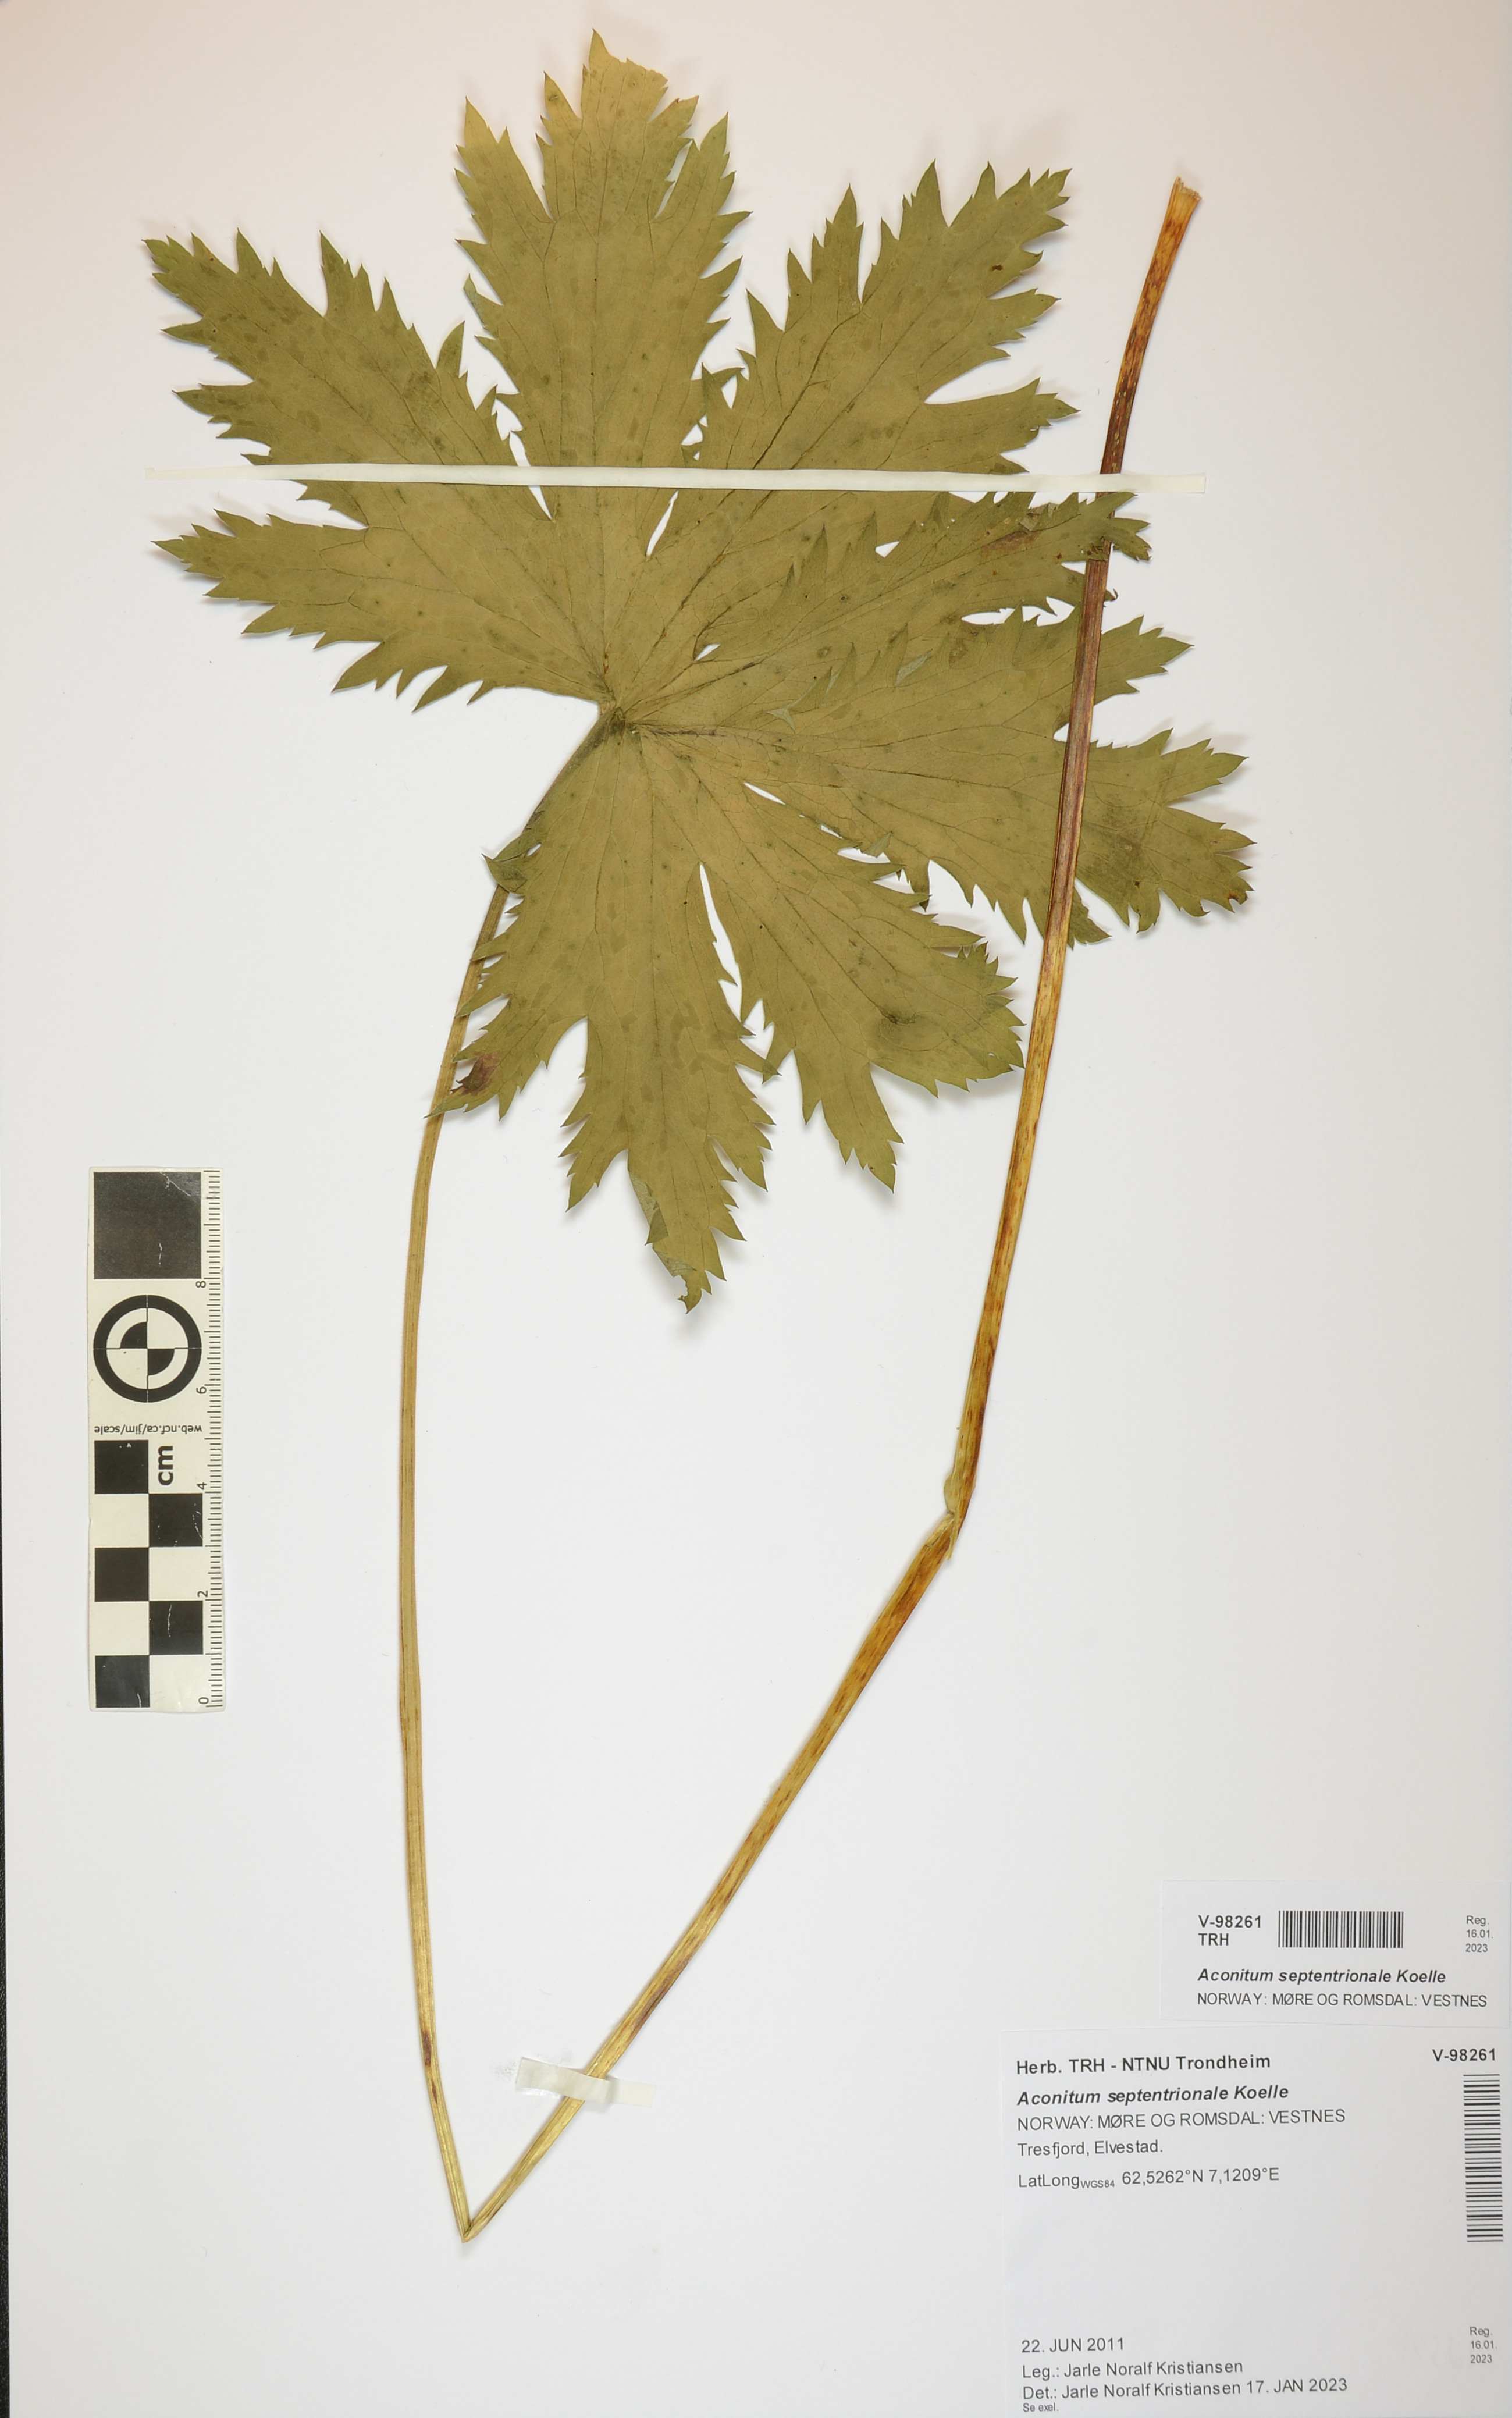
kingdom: Plantae
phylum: Tracheophyta
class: Magnoliopsida
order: Ranunculales
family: Ranunculaceae
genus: Aconitum
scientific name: Aconitum septentrionale
